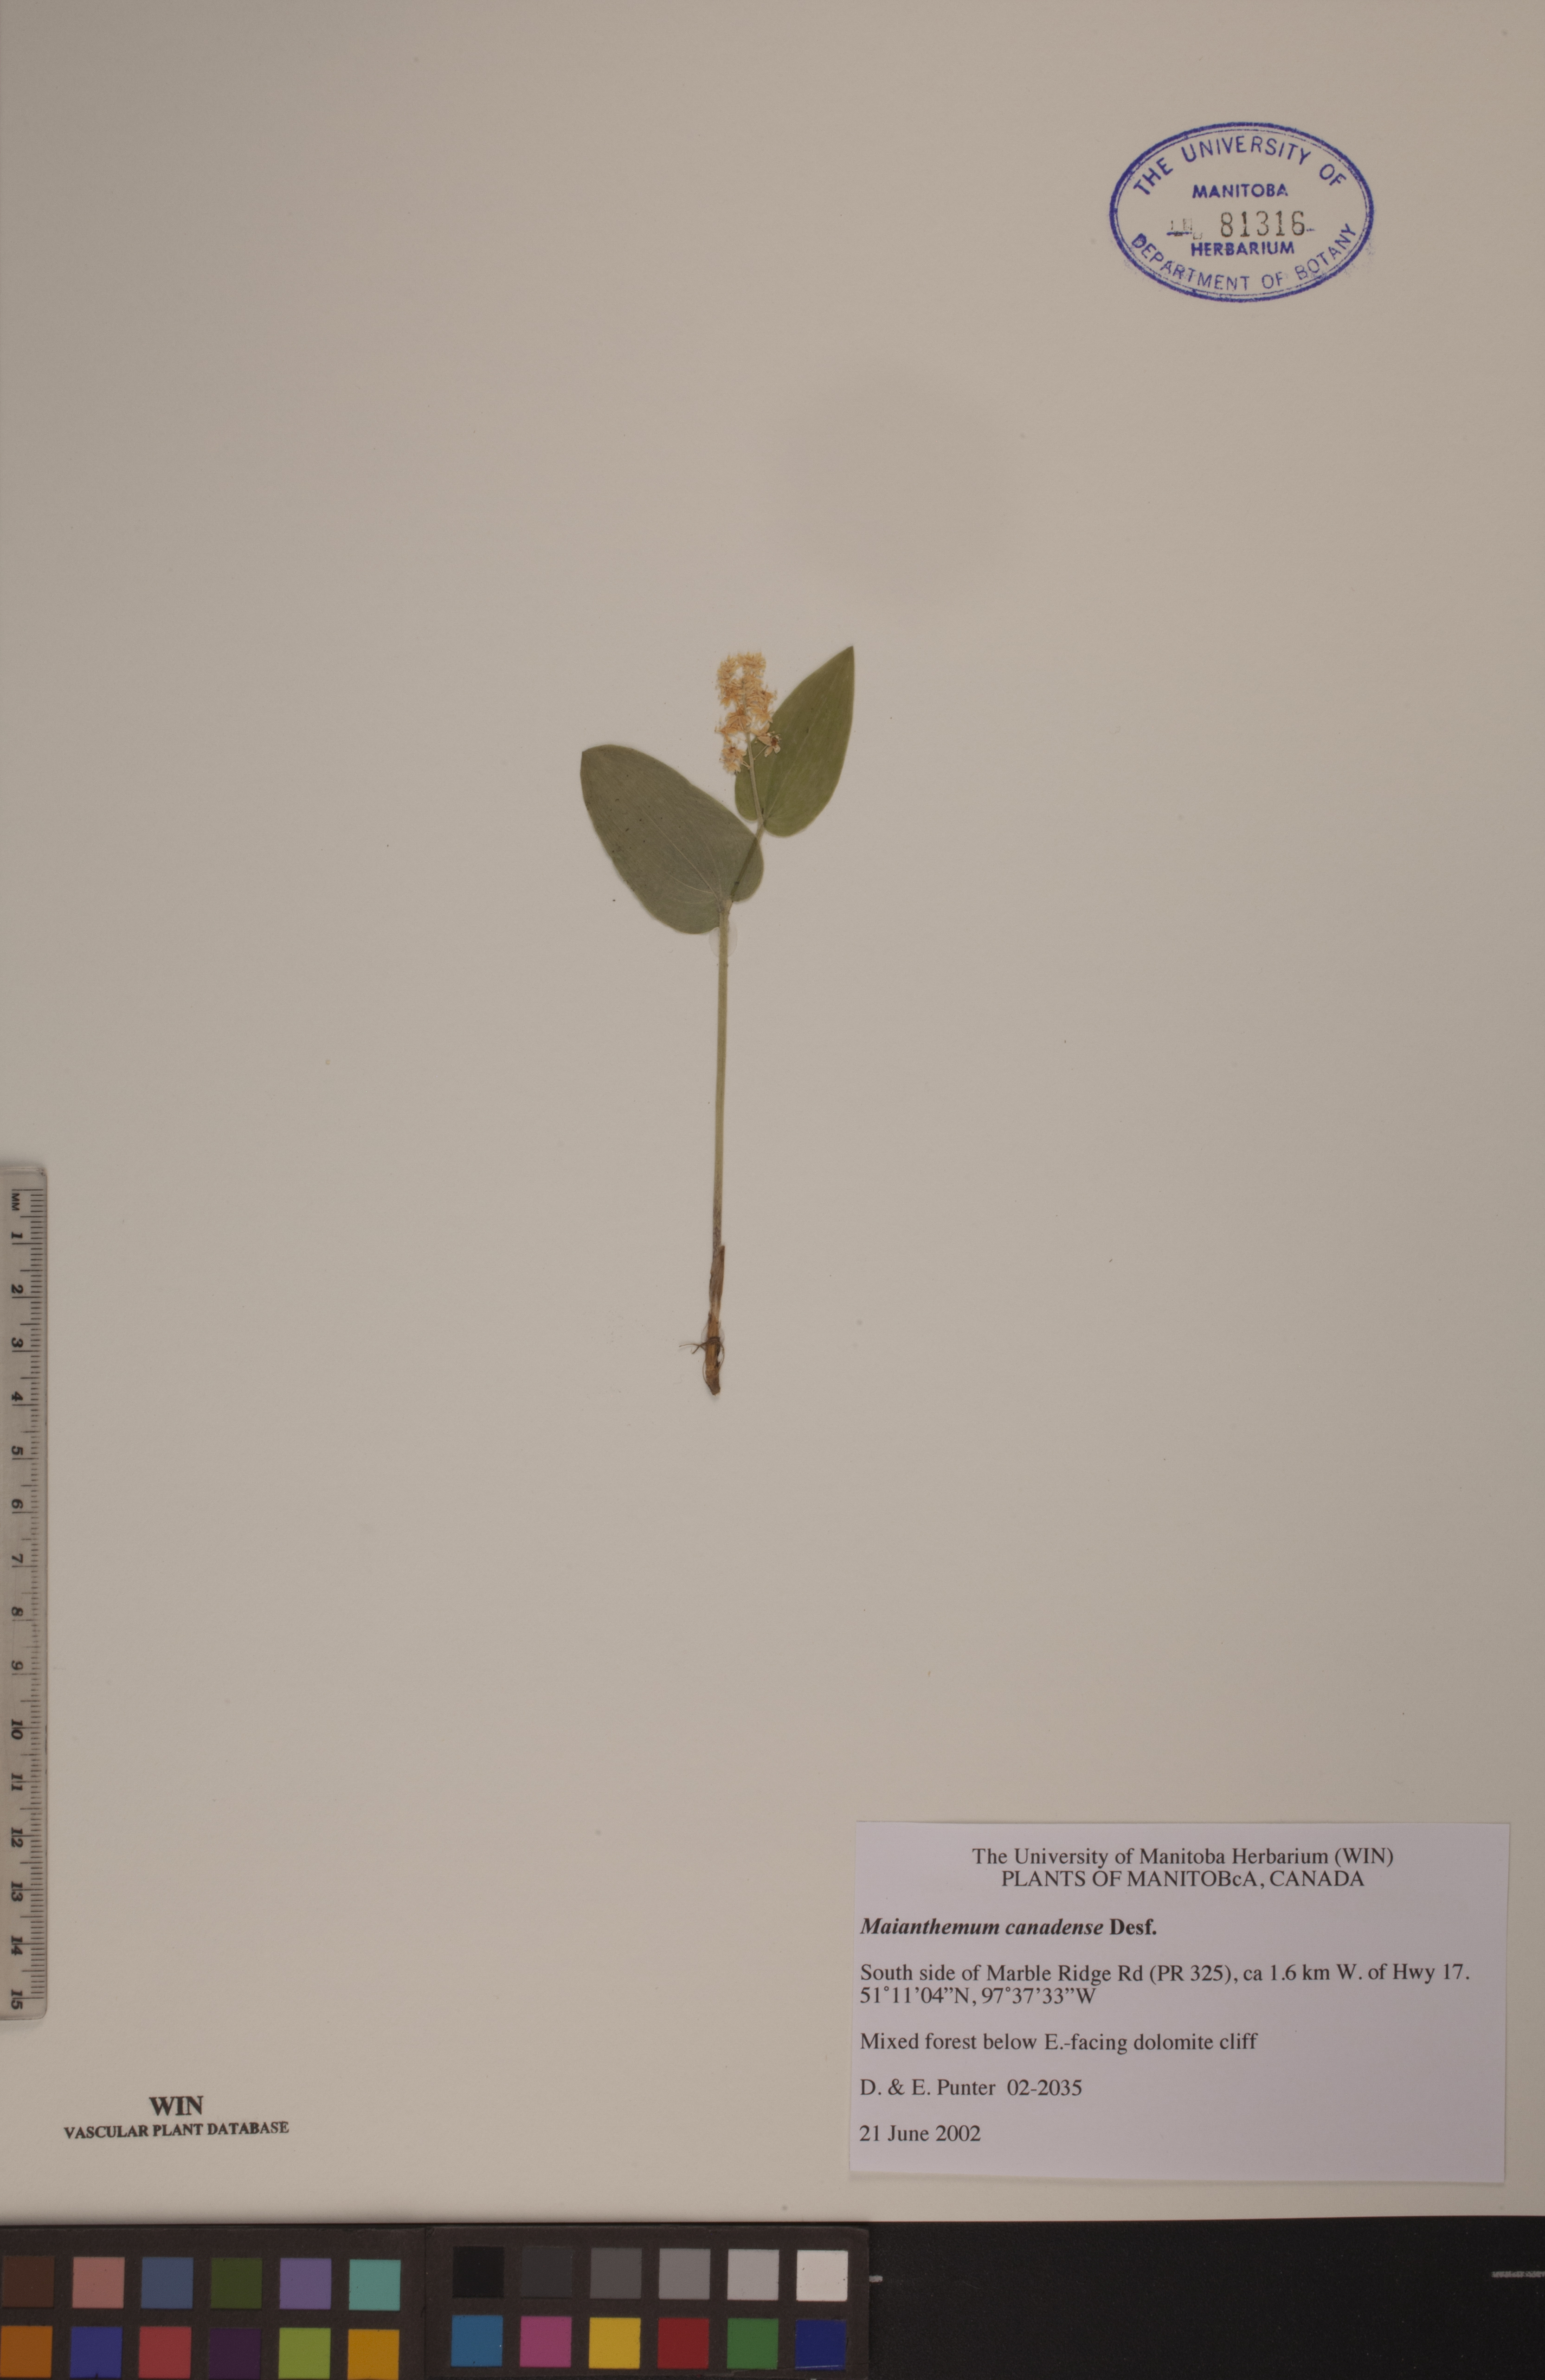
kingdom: Plantae
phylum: Tracheophyta
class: Liliopsida
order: Asparagales
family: Asparagaceae
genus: Maianthemum
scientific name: Maianthemum canadense
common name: False lily-of-the-valley
